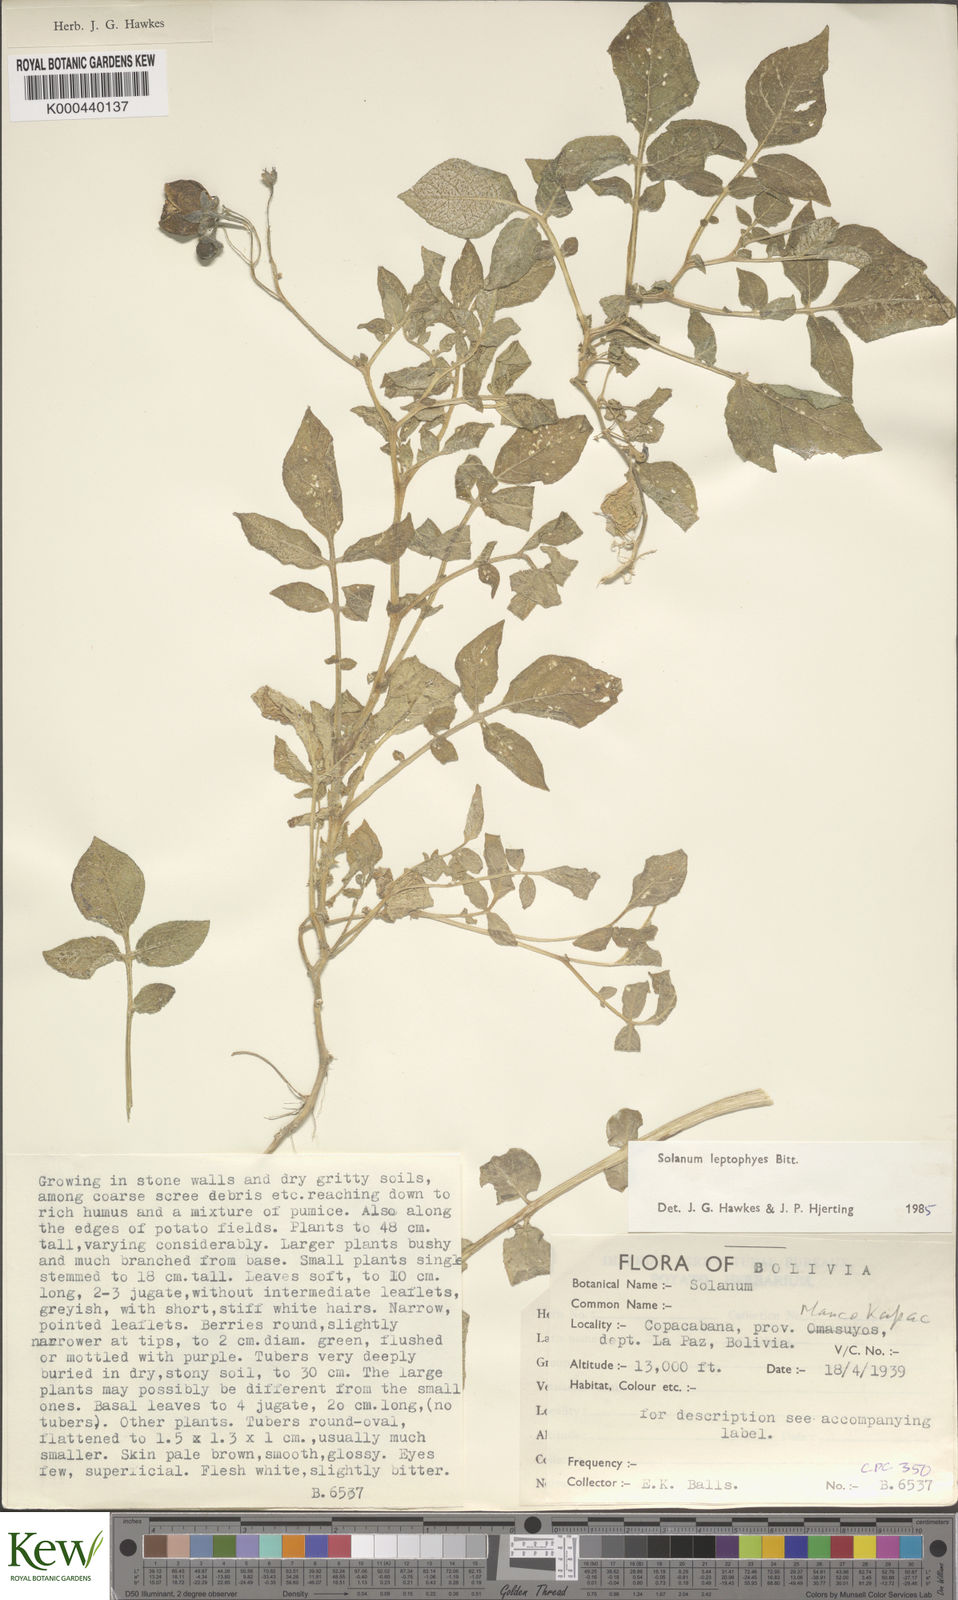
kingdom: Plantae
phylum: Tracheophyta
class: Magnoliopsida
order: Solanales
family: Solanaceae
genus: Solanum
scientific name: Solanum brevicaule
